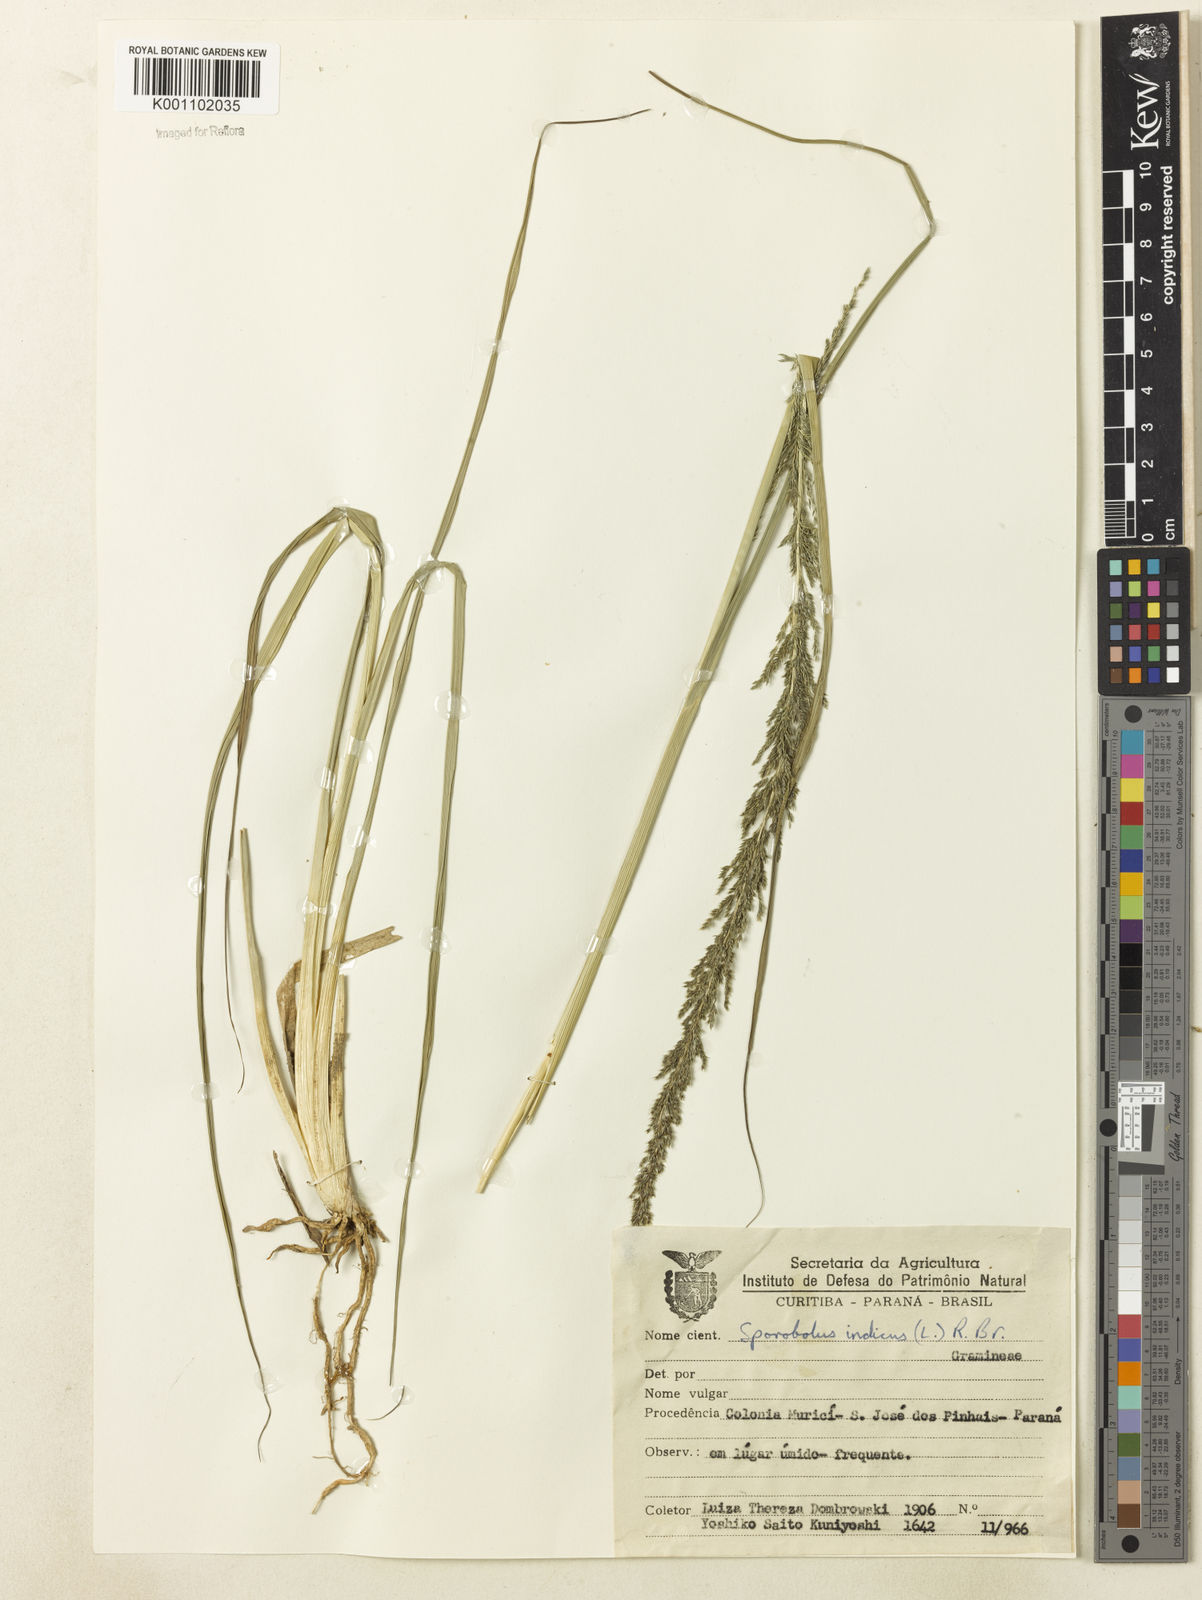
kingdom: Plantae
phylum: Tracheophyta
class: Liliopsida
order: Poales
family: Poaceae
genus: Sporobolus
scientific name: Sporobolus indicus
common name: Smut grass
